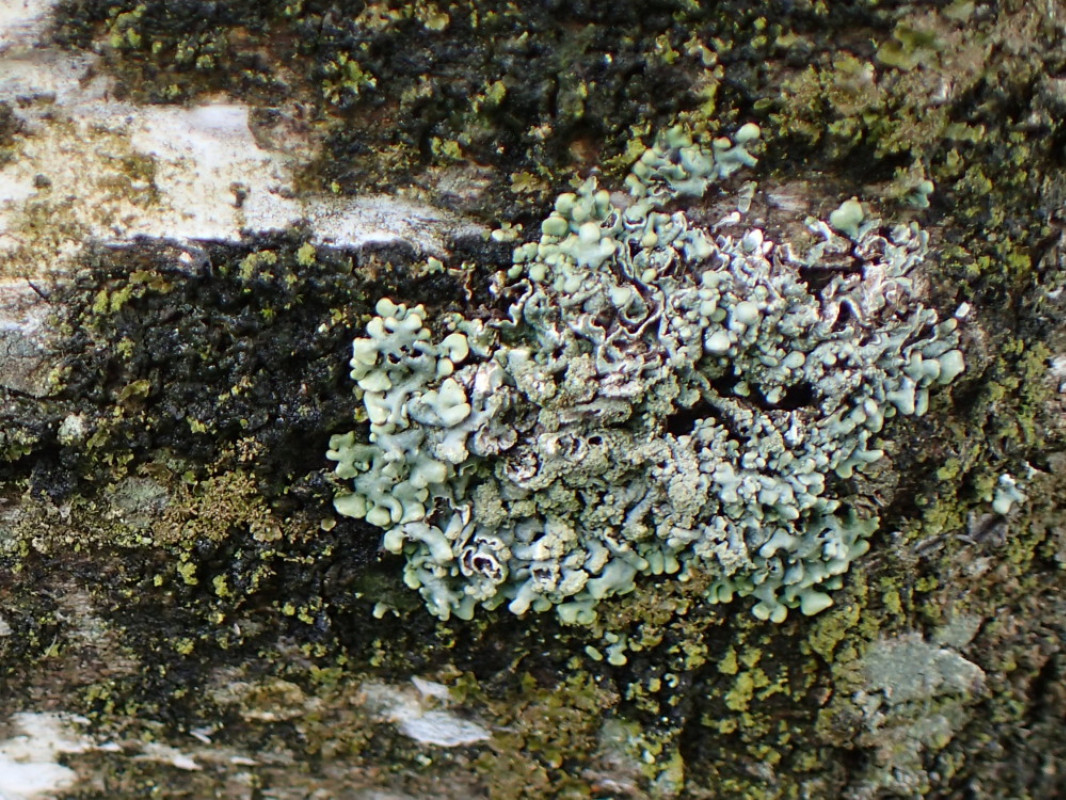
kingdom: Fungi
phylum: Ascomycota
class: Lecanoromycetes
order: Lecanorales
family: Parmeliaceae
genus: Hypogymnia
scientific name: Hypogymnia physodes
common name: almindelig kvistlav
